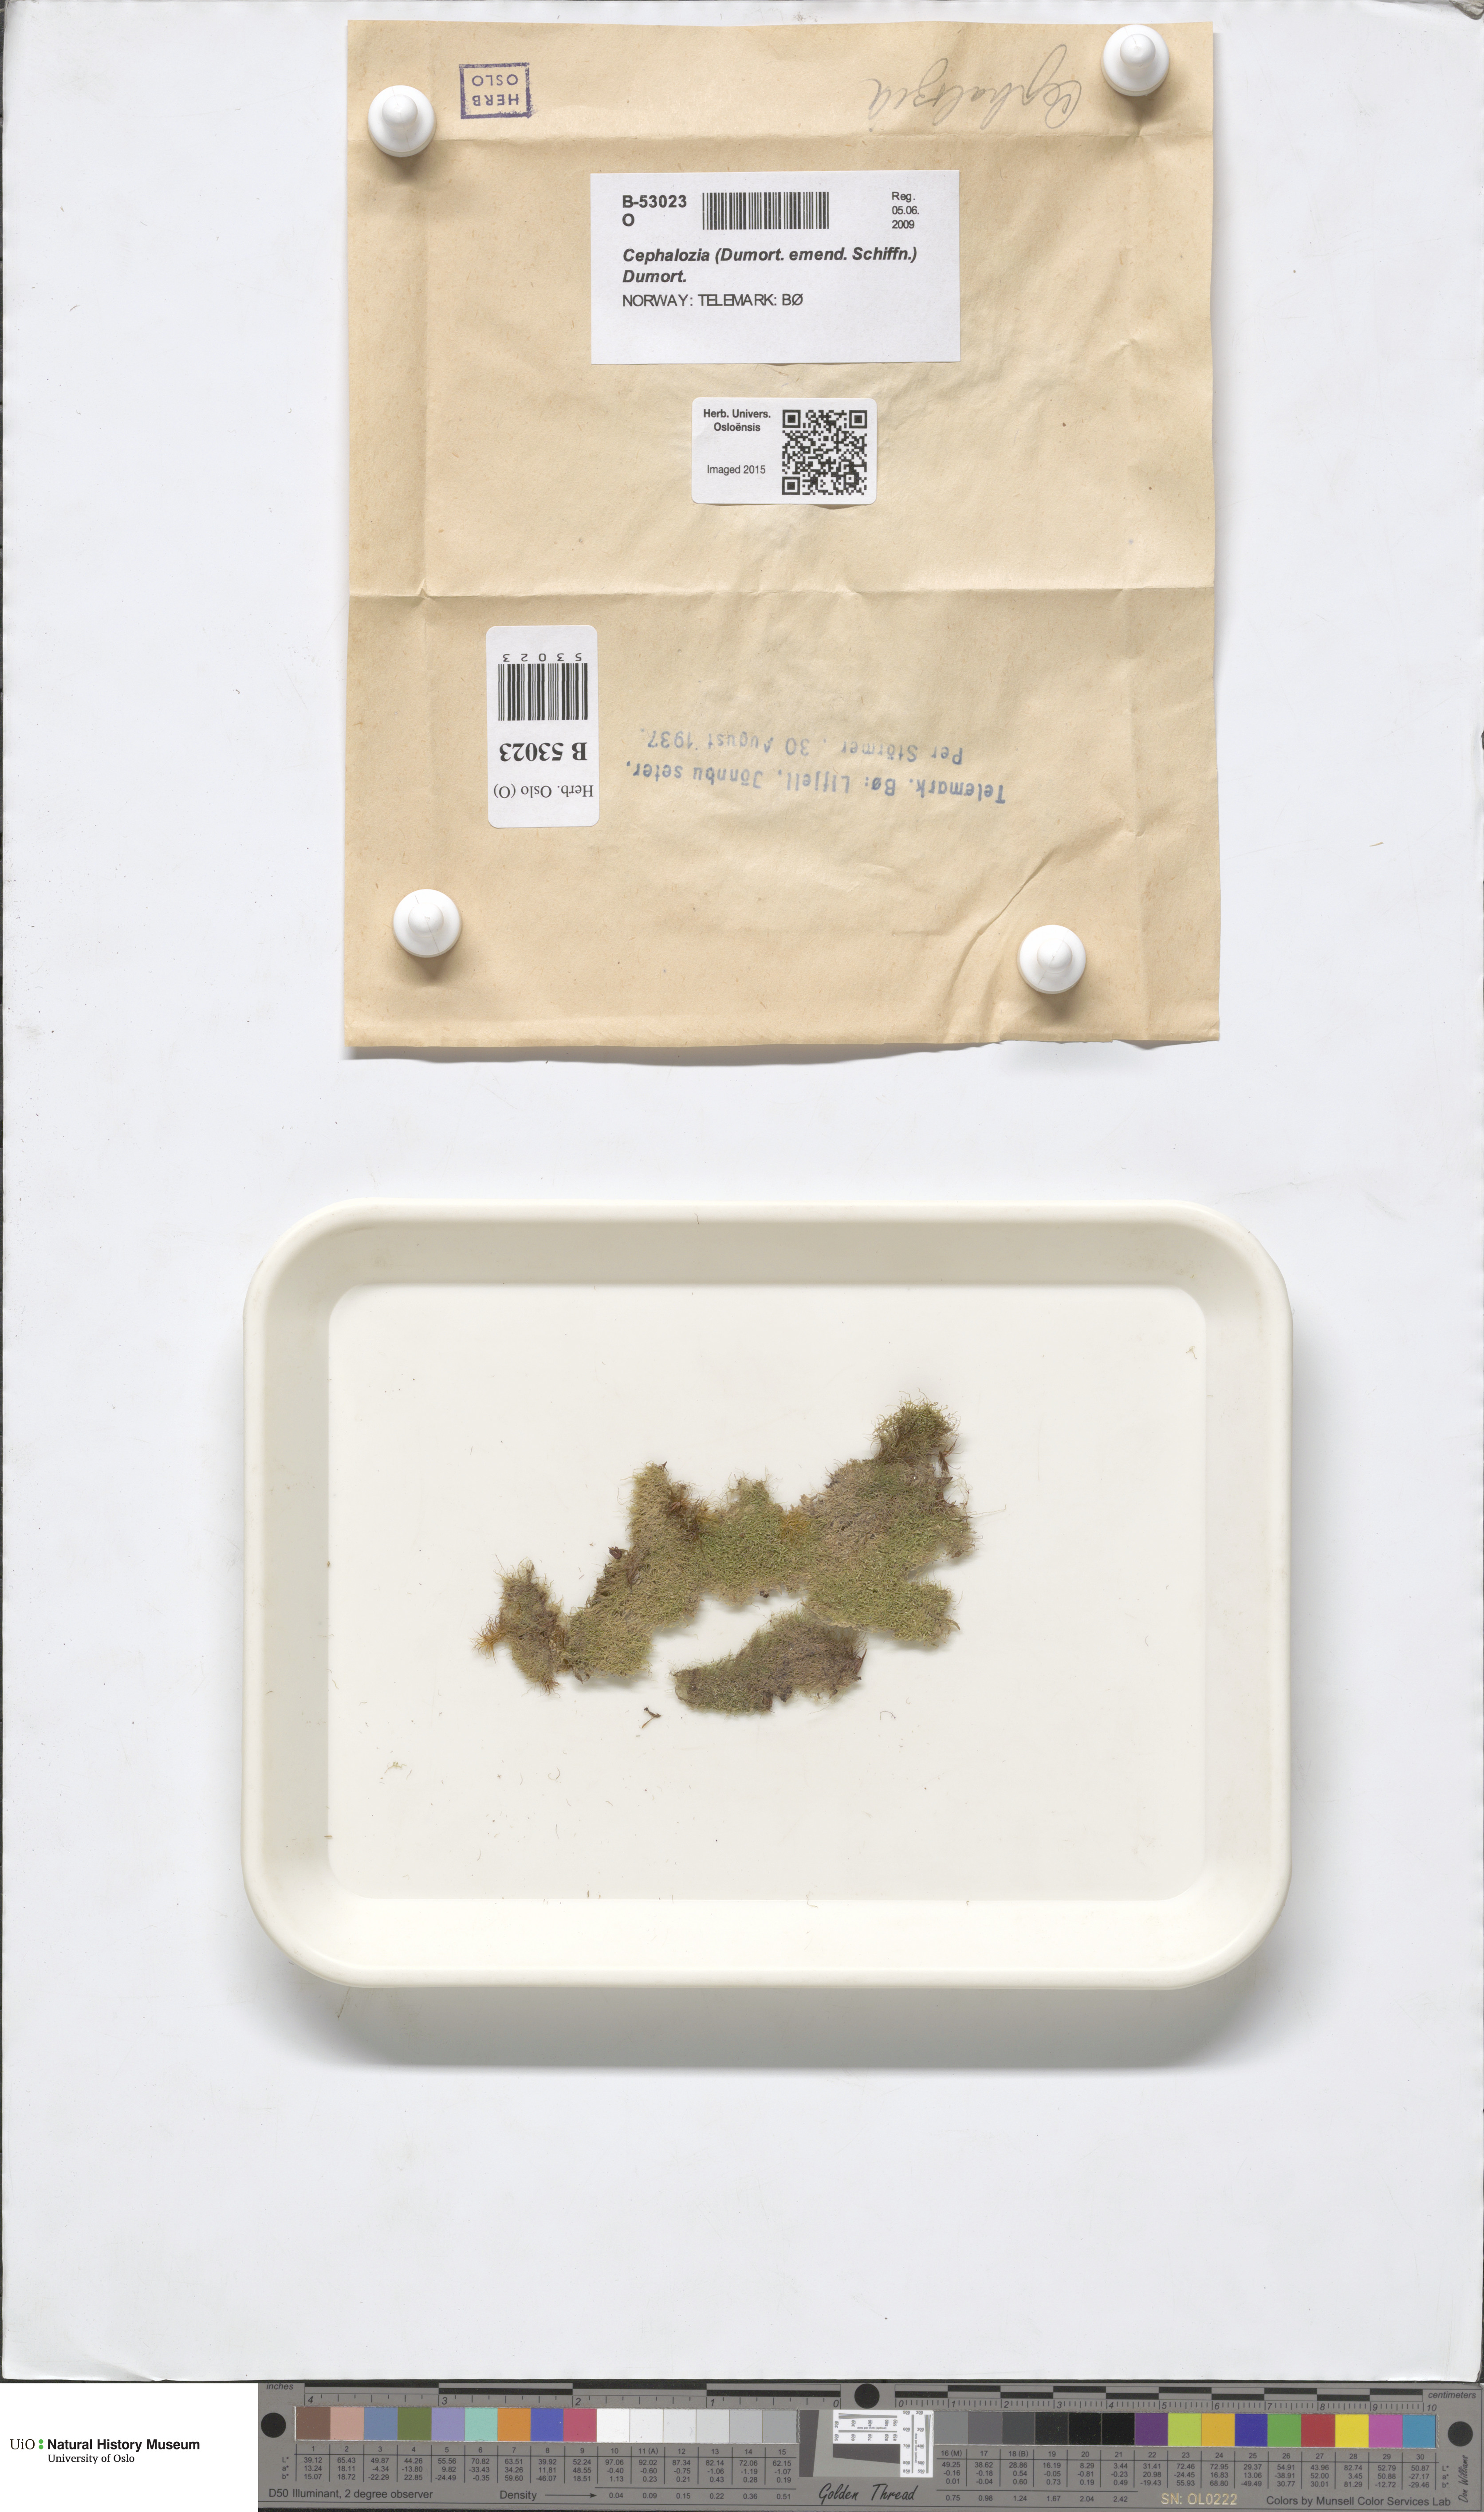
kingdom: Plantae
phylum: Marchantiophyta
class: Jungermanniopsida
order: Jungermanniales
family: Cephaloziaceae
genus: Cephalozia
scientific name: Cephalozia
